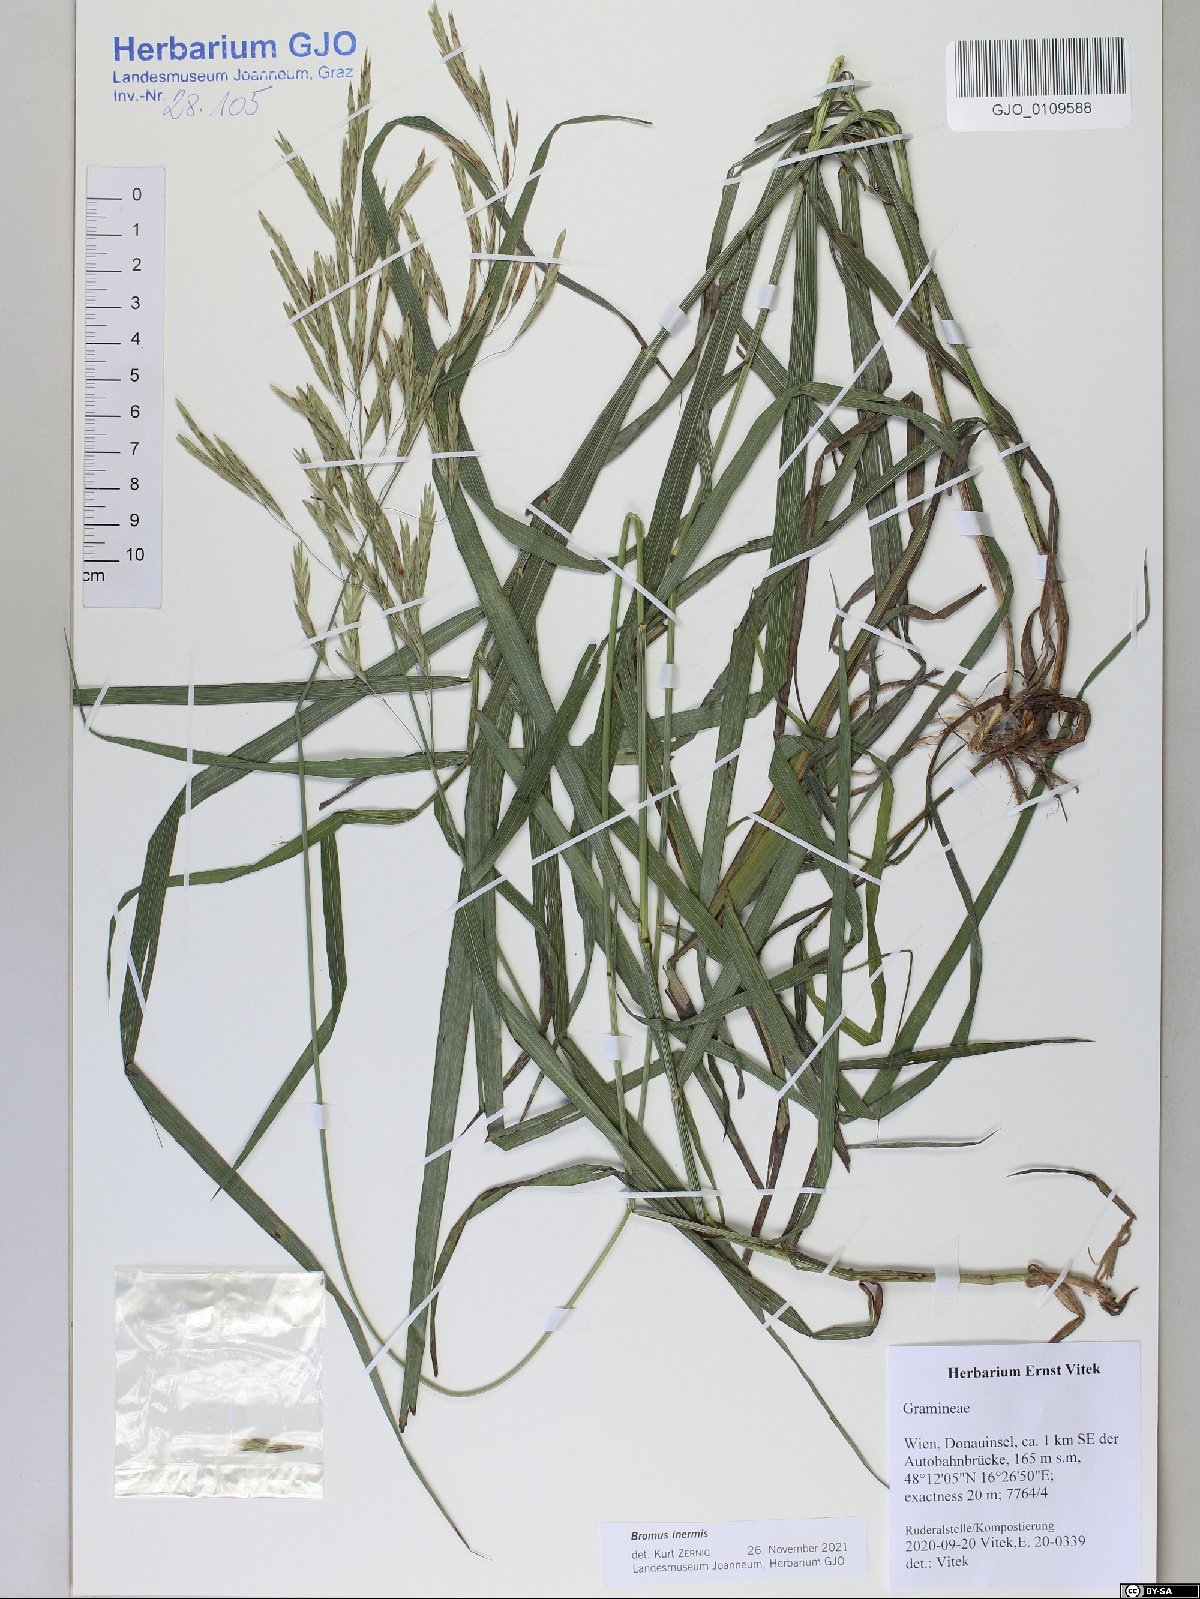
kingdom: Plantae
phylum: Tracheophyta
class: Liliopsida
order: Poales
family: Poaceae
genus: Bromus
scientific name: Bromus inermis
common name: Smooth brome
